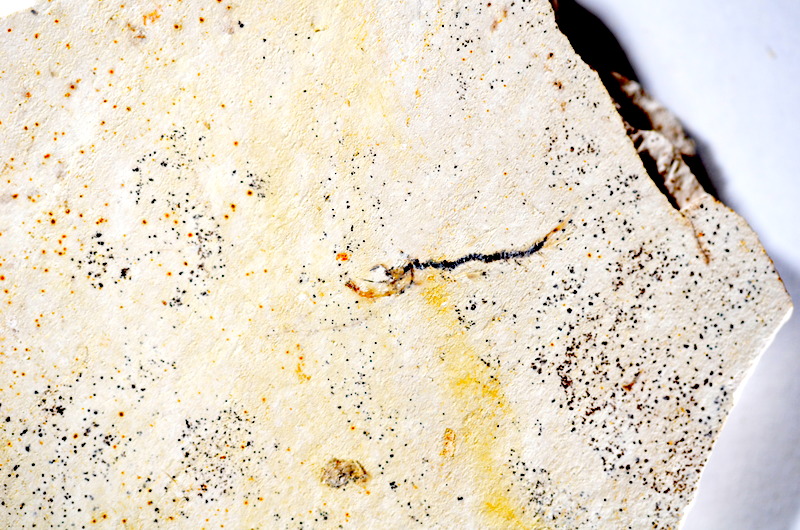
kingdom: Animalia
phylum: Chordata
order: Salmoniformes
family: Orthogonikleithridae
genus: Orthogonikleithrus
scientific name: Orthogonikleithrus hoelli
